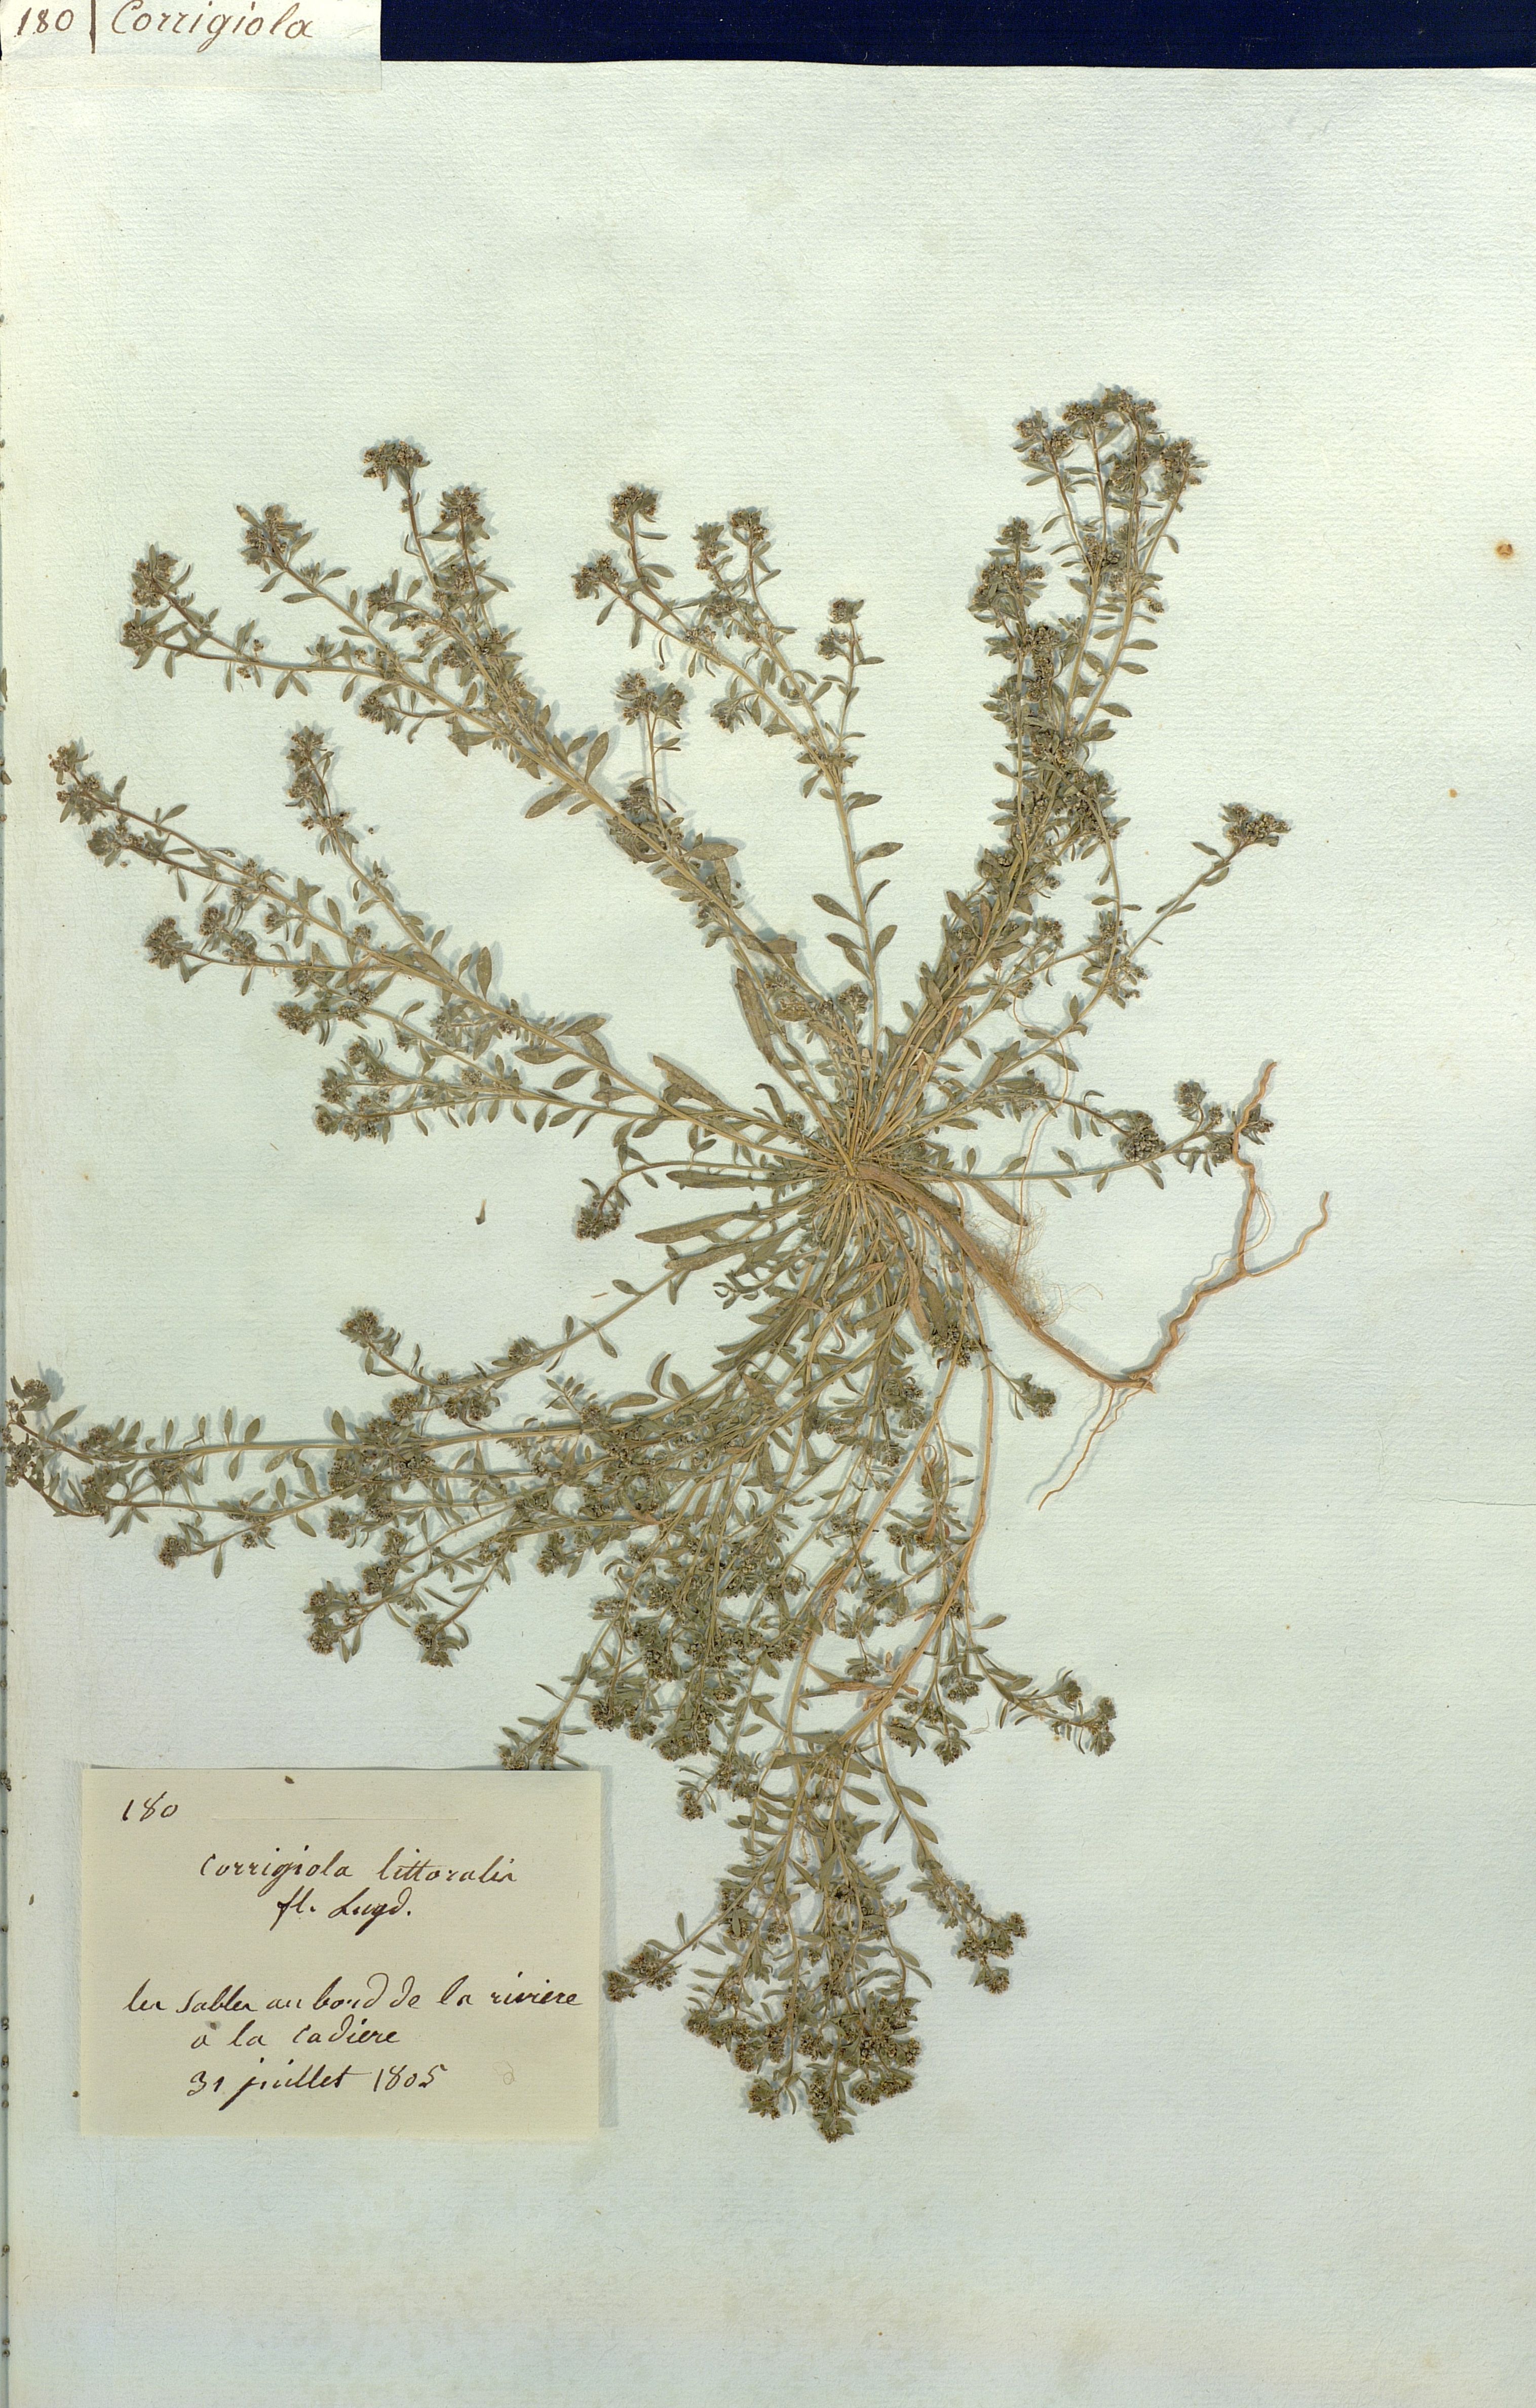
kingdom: Plantae
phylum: Tracheophyta
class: Magnoliopsida
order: Caryophyllales
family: Caryophyllaceae
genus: Corrigiola
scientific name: Corrigiola littoralis
